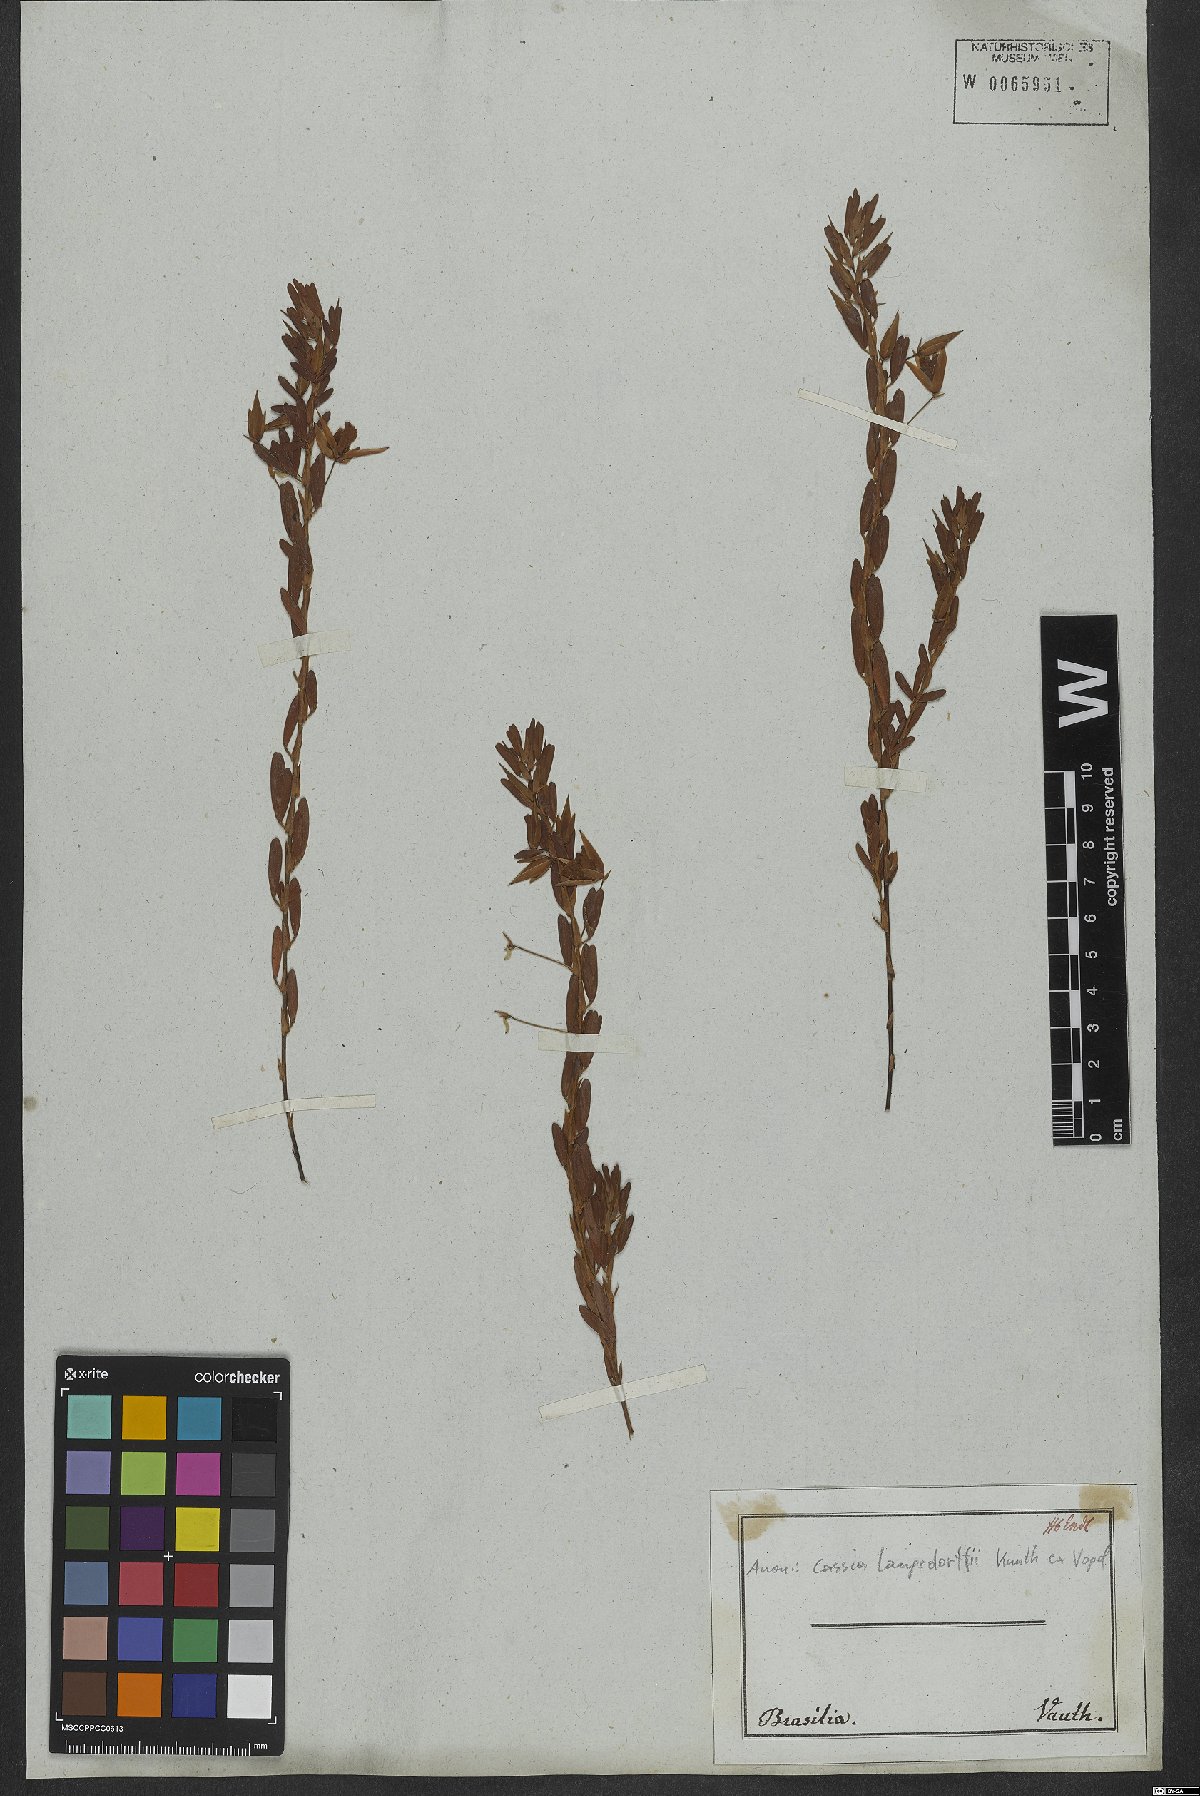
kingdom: Plantae
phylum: Tracheophyta
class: Magnoliopsida
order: Fabales
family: Fabaceae
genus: Chamaecrista
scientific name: Chamaecrista langsdorffii
